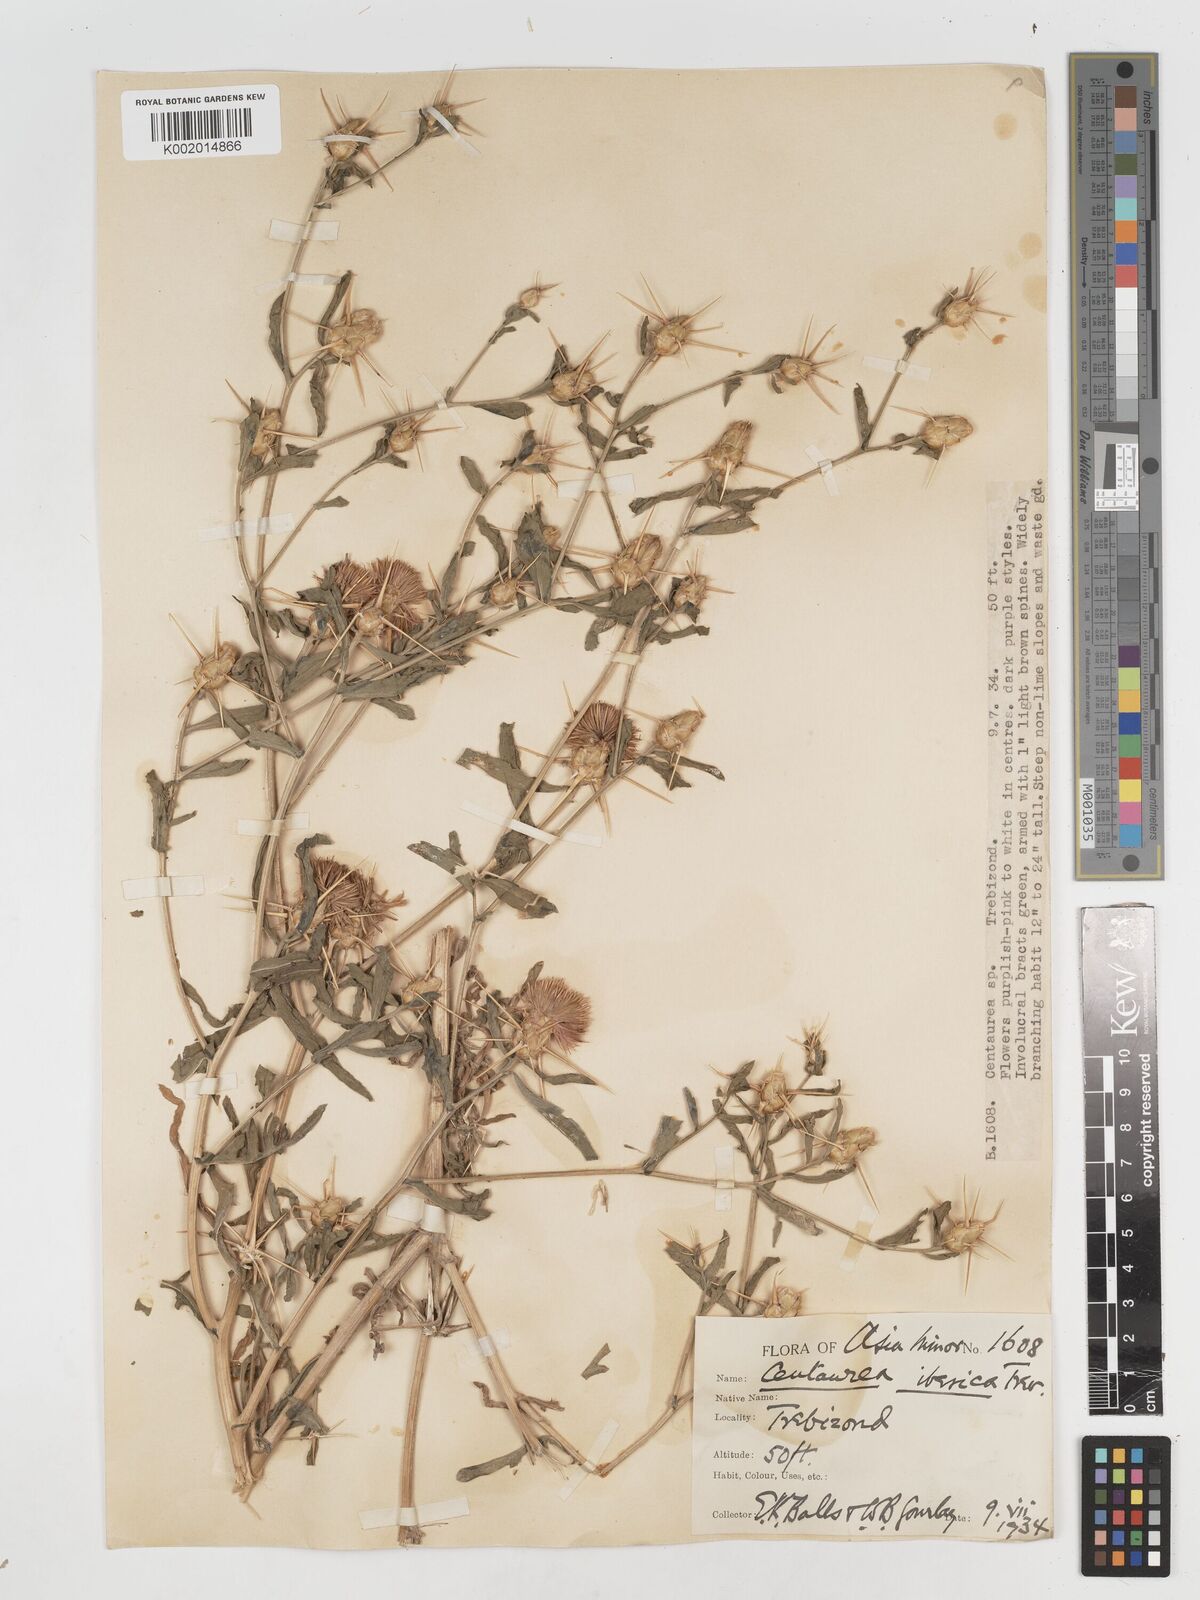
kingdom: Plantae
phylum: Tracheophyta
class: Magnoliopsida
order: Asterales
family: Asteraceae
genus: Centaurea
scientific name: Centaurea iberica
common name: Iberian knapweed
